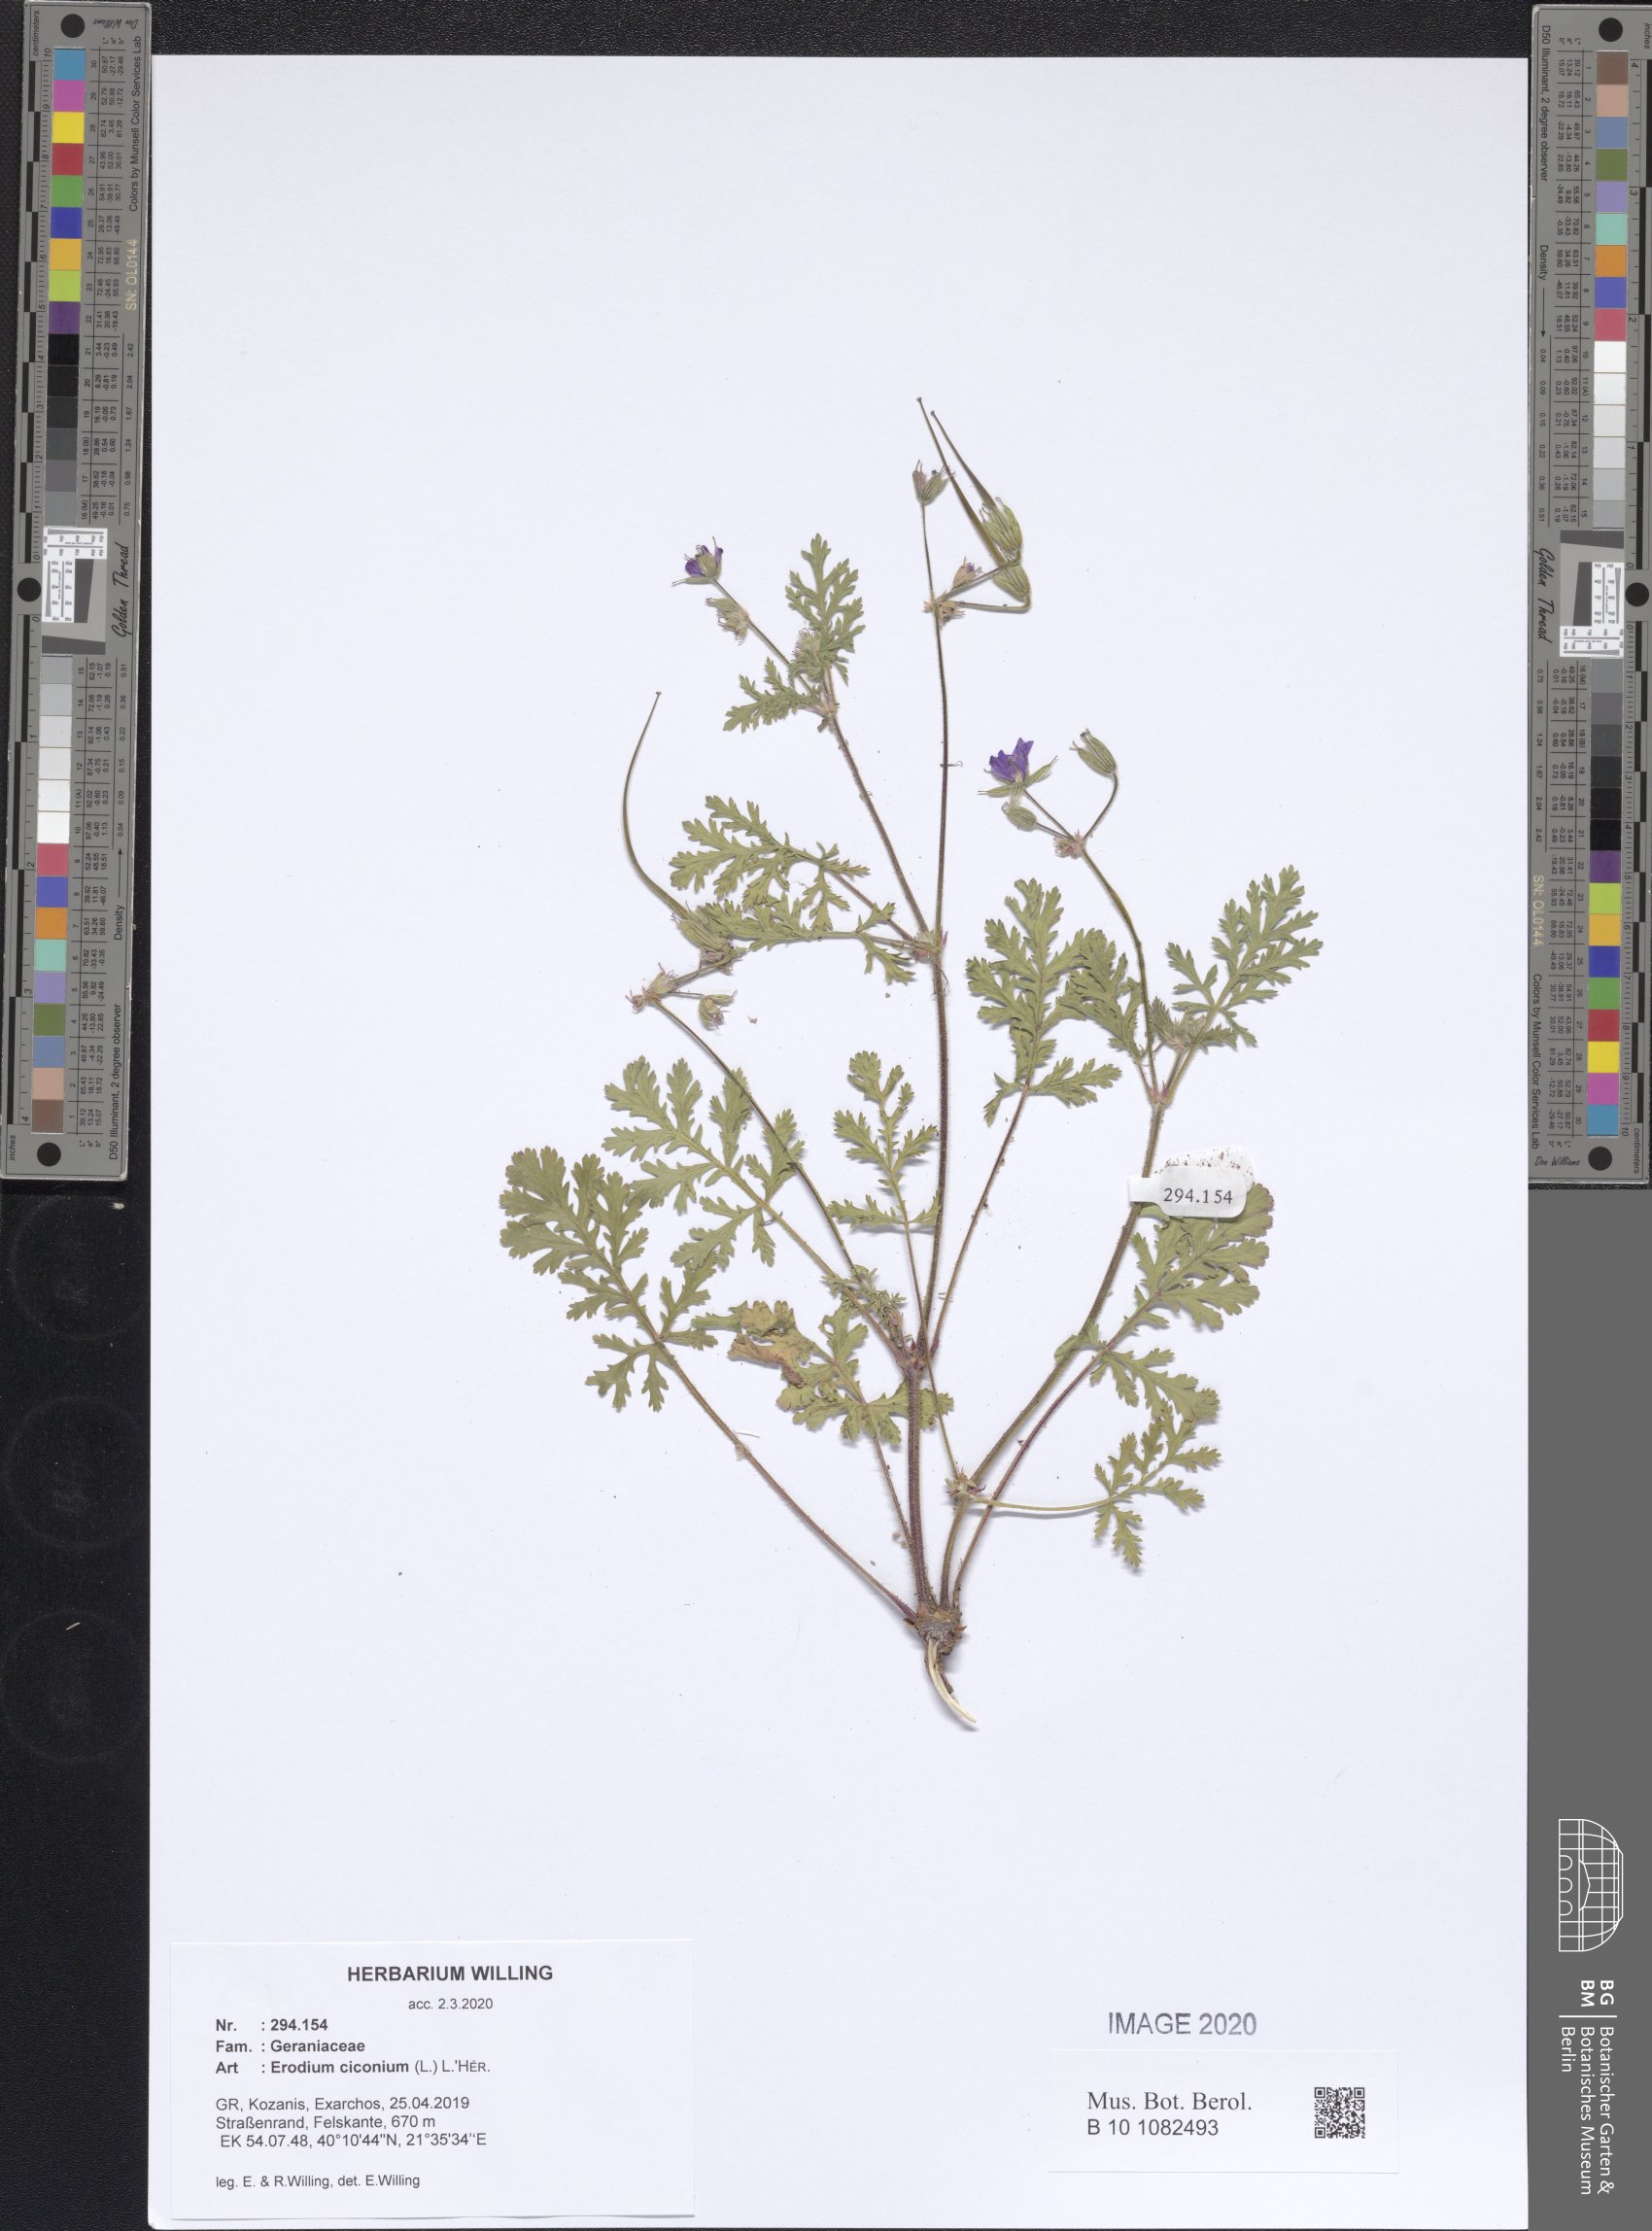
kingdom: Plantae
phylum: Tracheophyta
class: Magnoliopsida
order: Geraniales
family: Geraniaceae
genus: Erodium
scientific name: Erodium ciconium
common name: Common stork's bill
